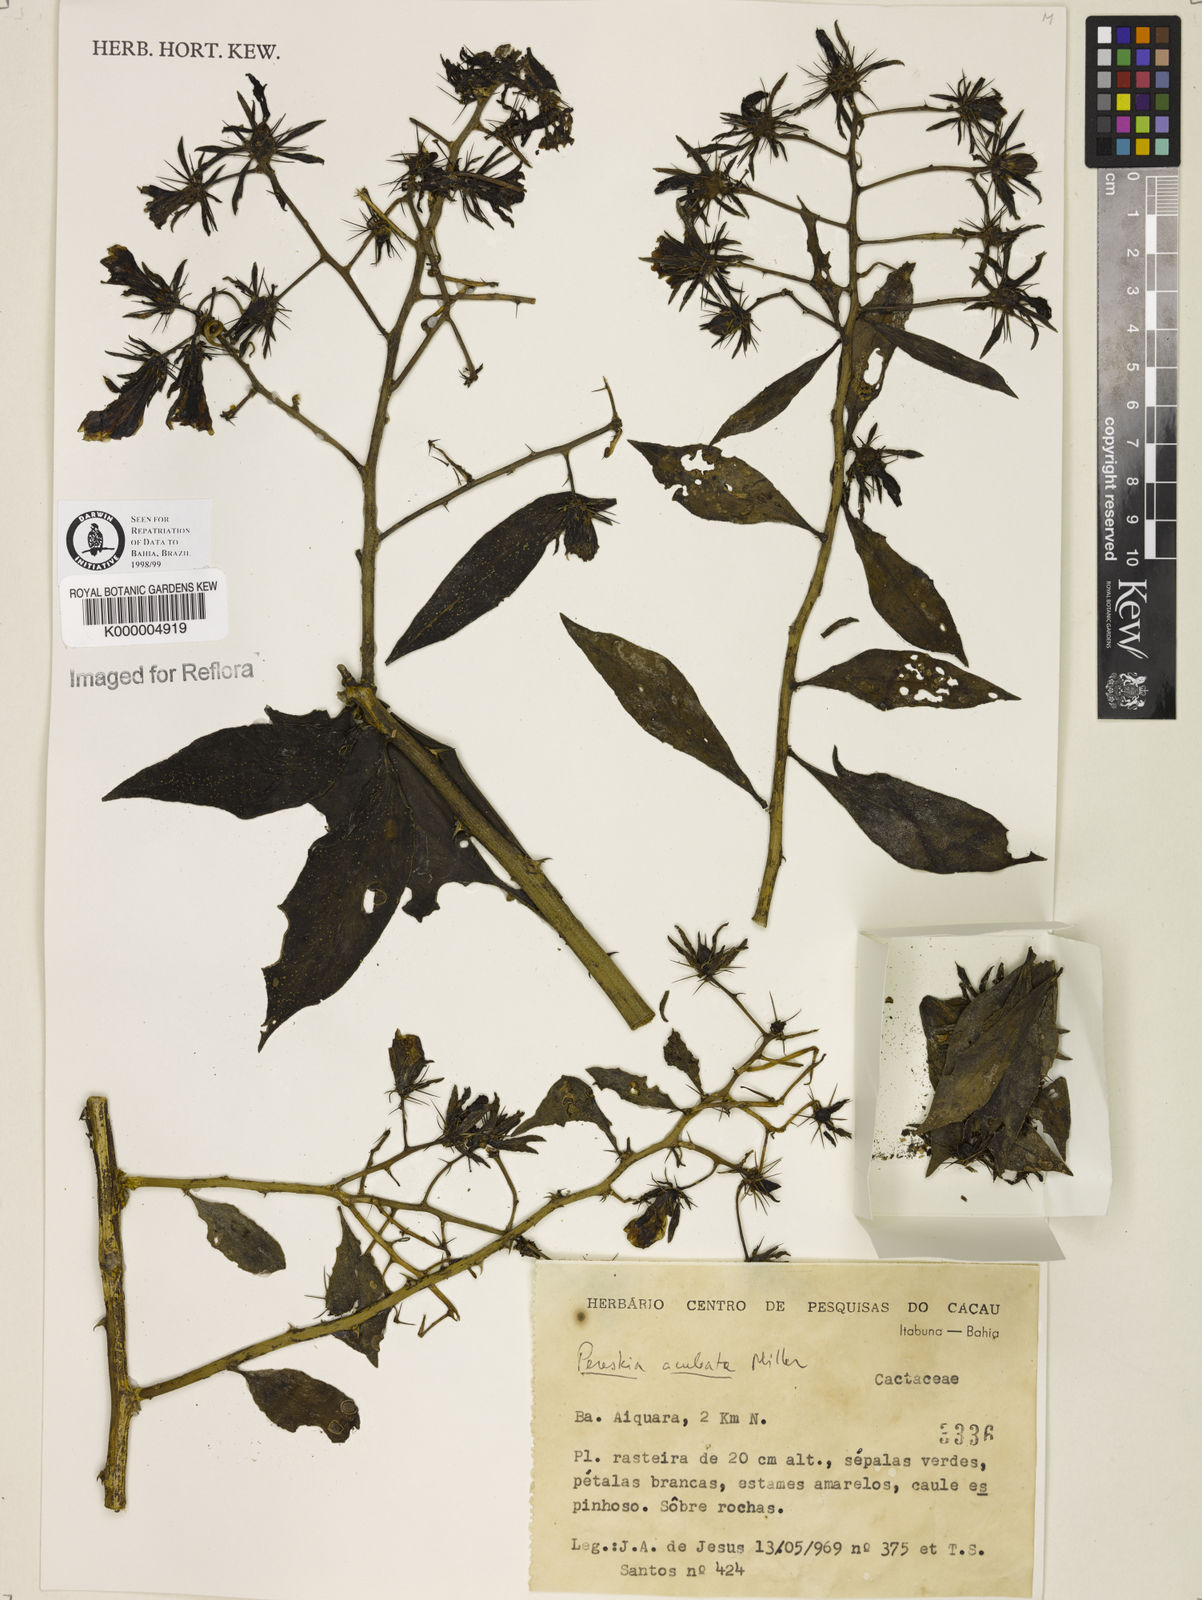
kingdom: Plantae
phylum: Tracheophyta
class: Magnoliopsida
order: Caryophyllales
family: Cactaceae
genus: Pereskia
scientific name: Pereskia aculeata
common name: Barbados gooseberry
